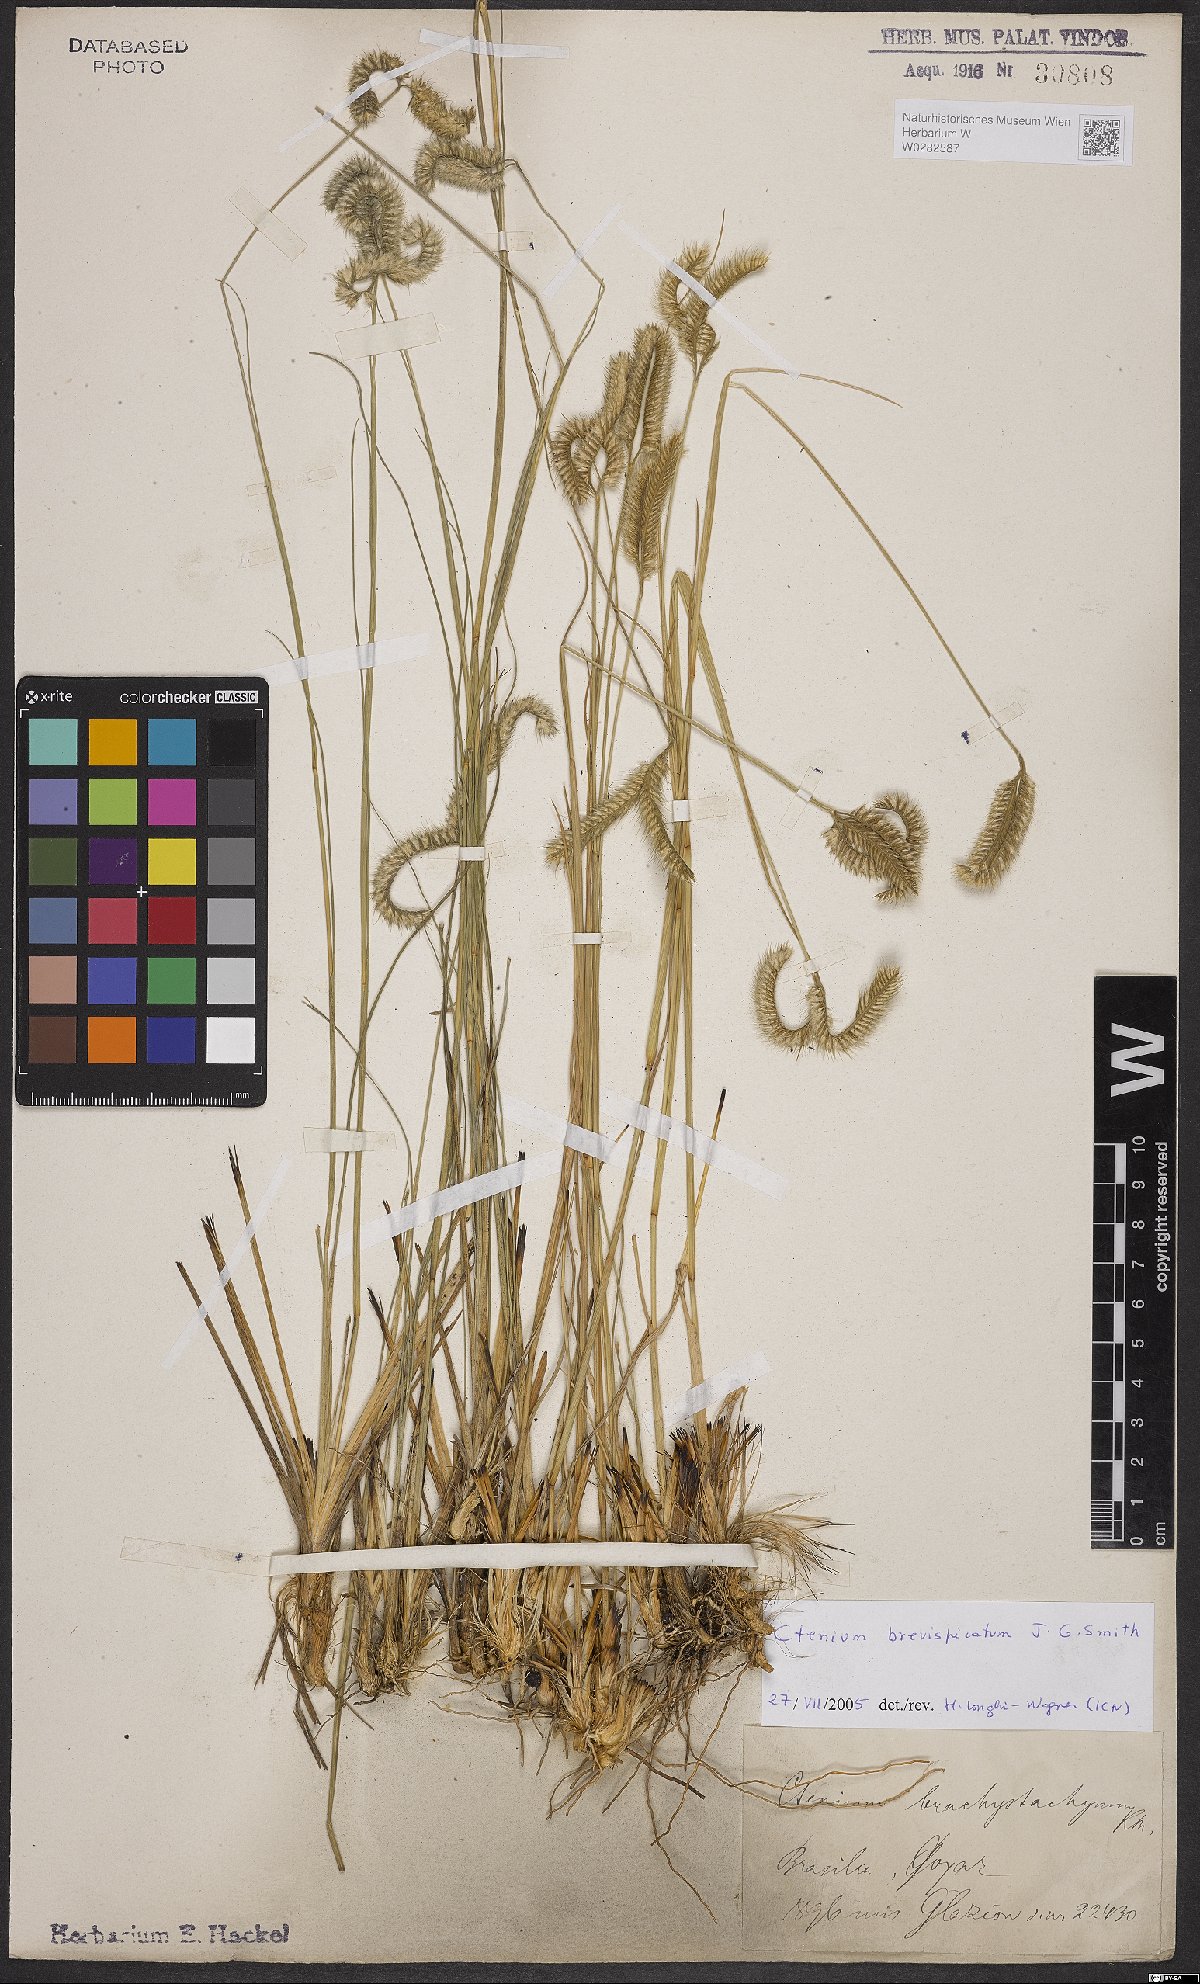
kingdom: Plantae
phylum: Tracheophyta
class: Liliopsida
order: Poales
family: Poaceae
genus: Ctenium
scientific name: Ctenium brevispicatum
